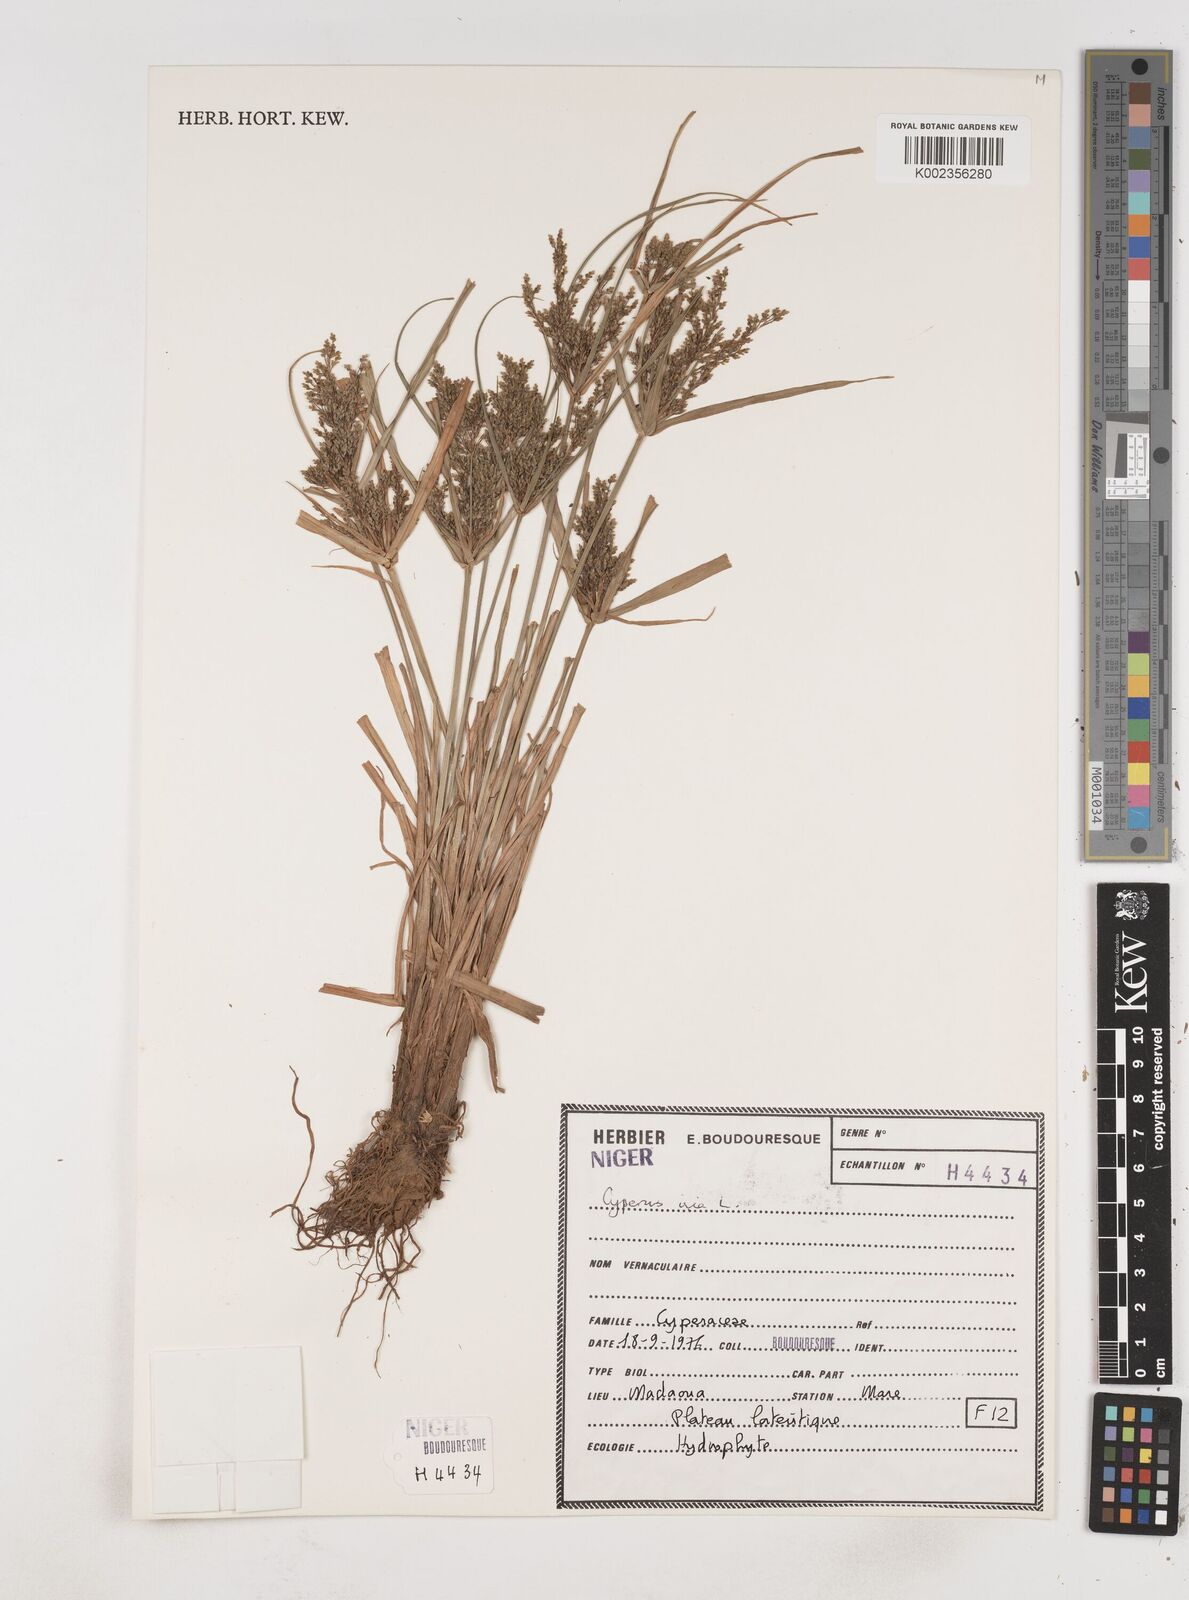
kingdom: Plantae
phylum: Tracheophyta
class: Liliopsida
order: Poales
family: Cyperaceae
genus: Cyperus
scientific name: Cyperus iria
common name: Ricefield flatsedge
